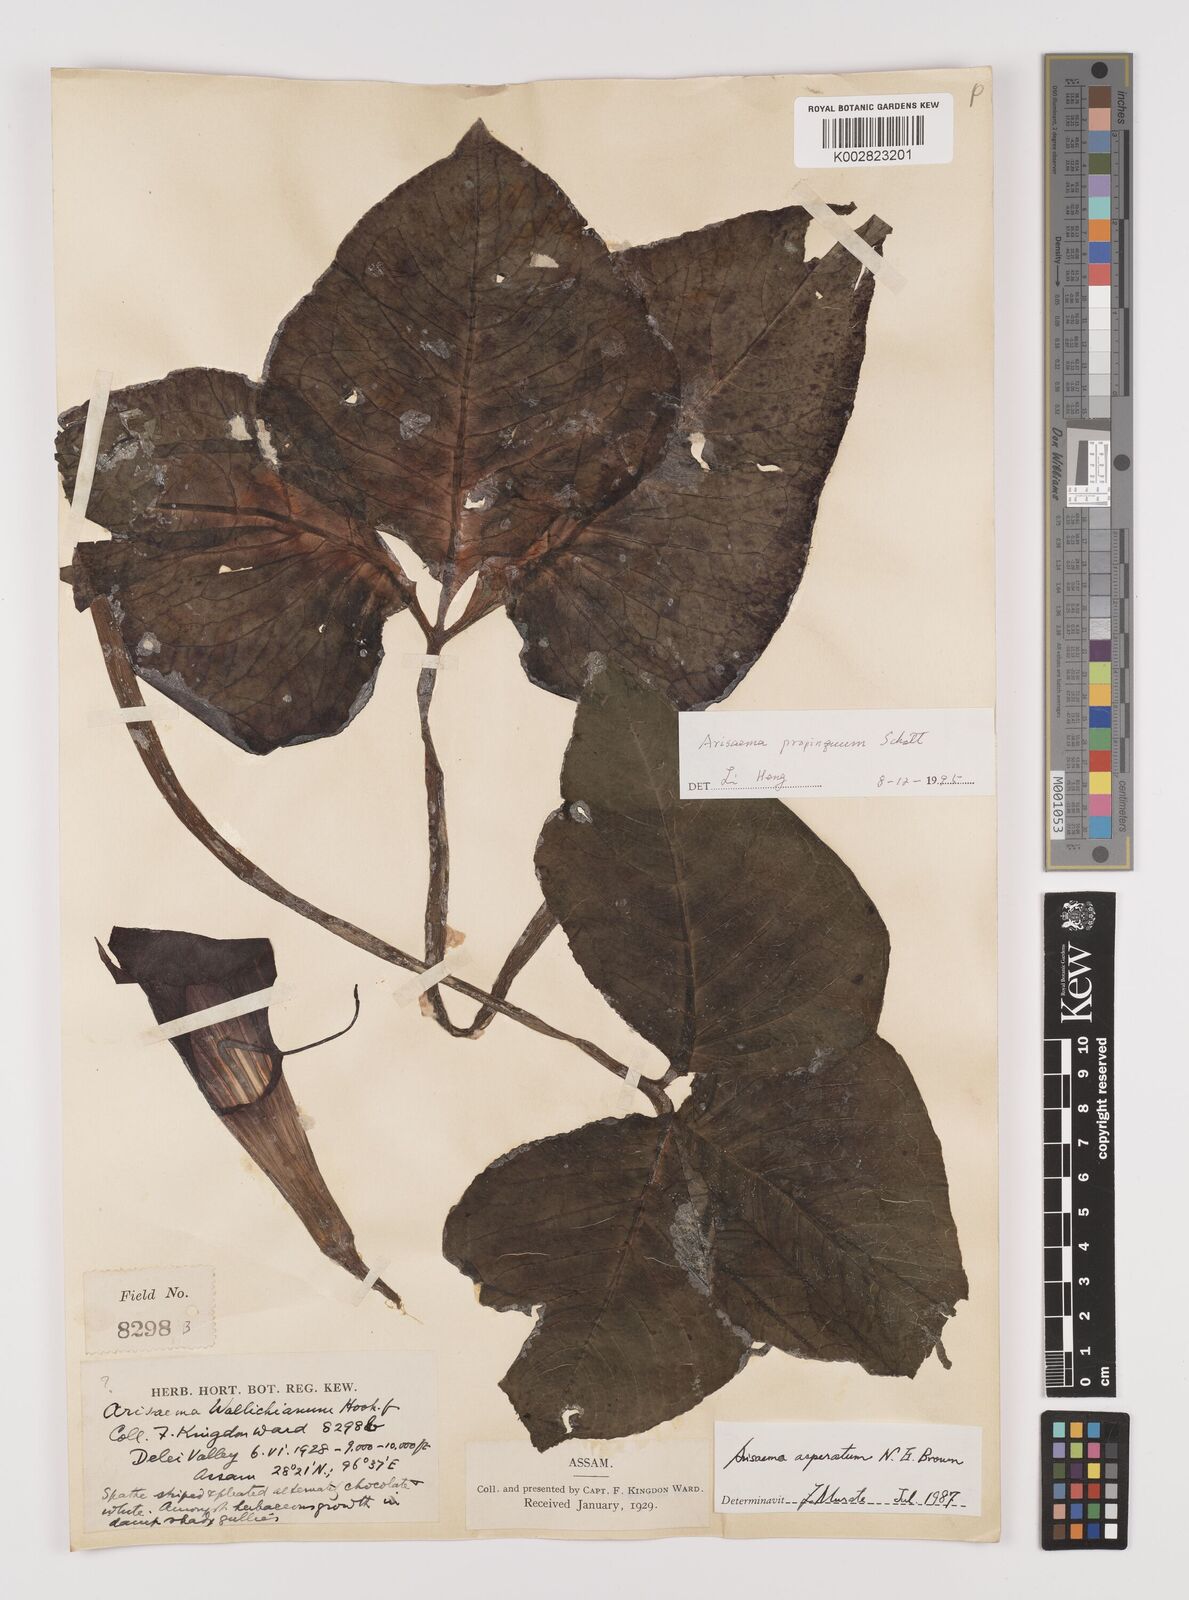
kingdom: Plantae
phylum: Tracheophyta
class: Liliopsida
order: Alismatales
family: Araceae
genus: Arisaema
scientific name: Arisaema propinquum
